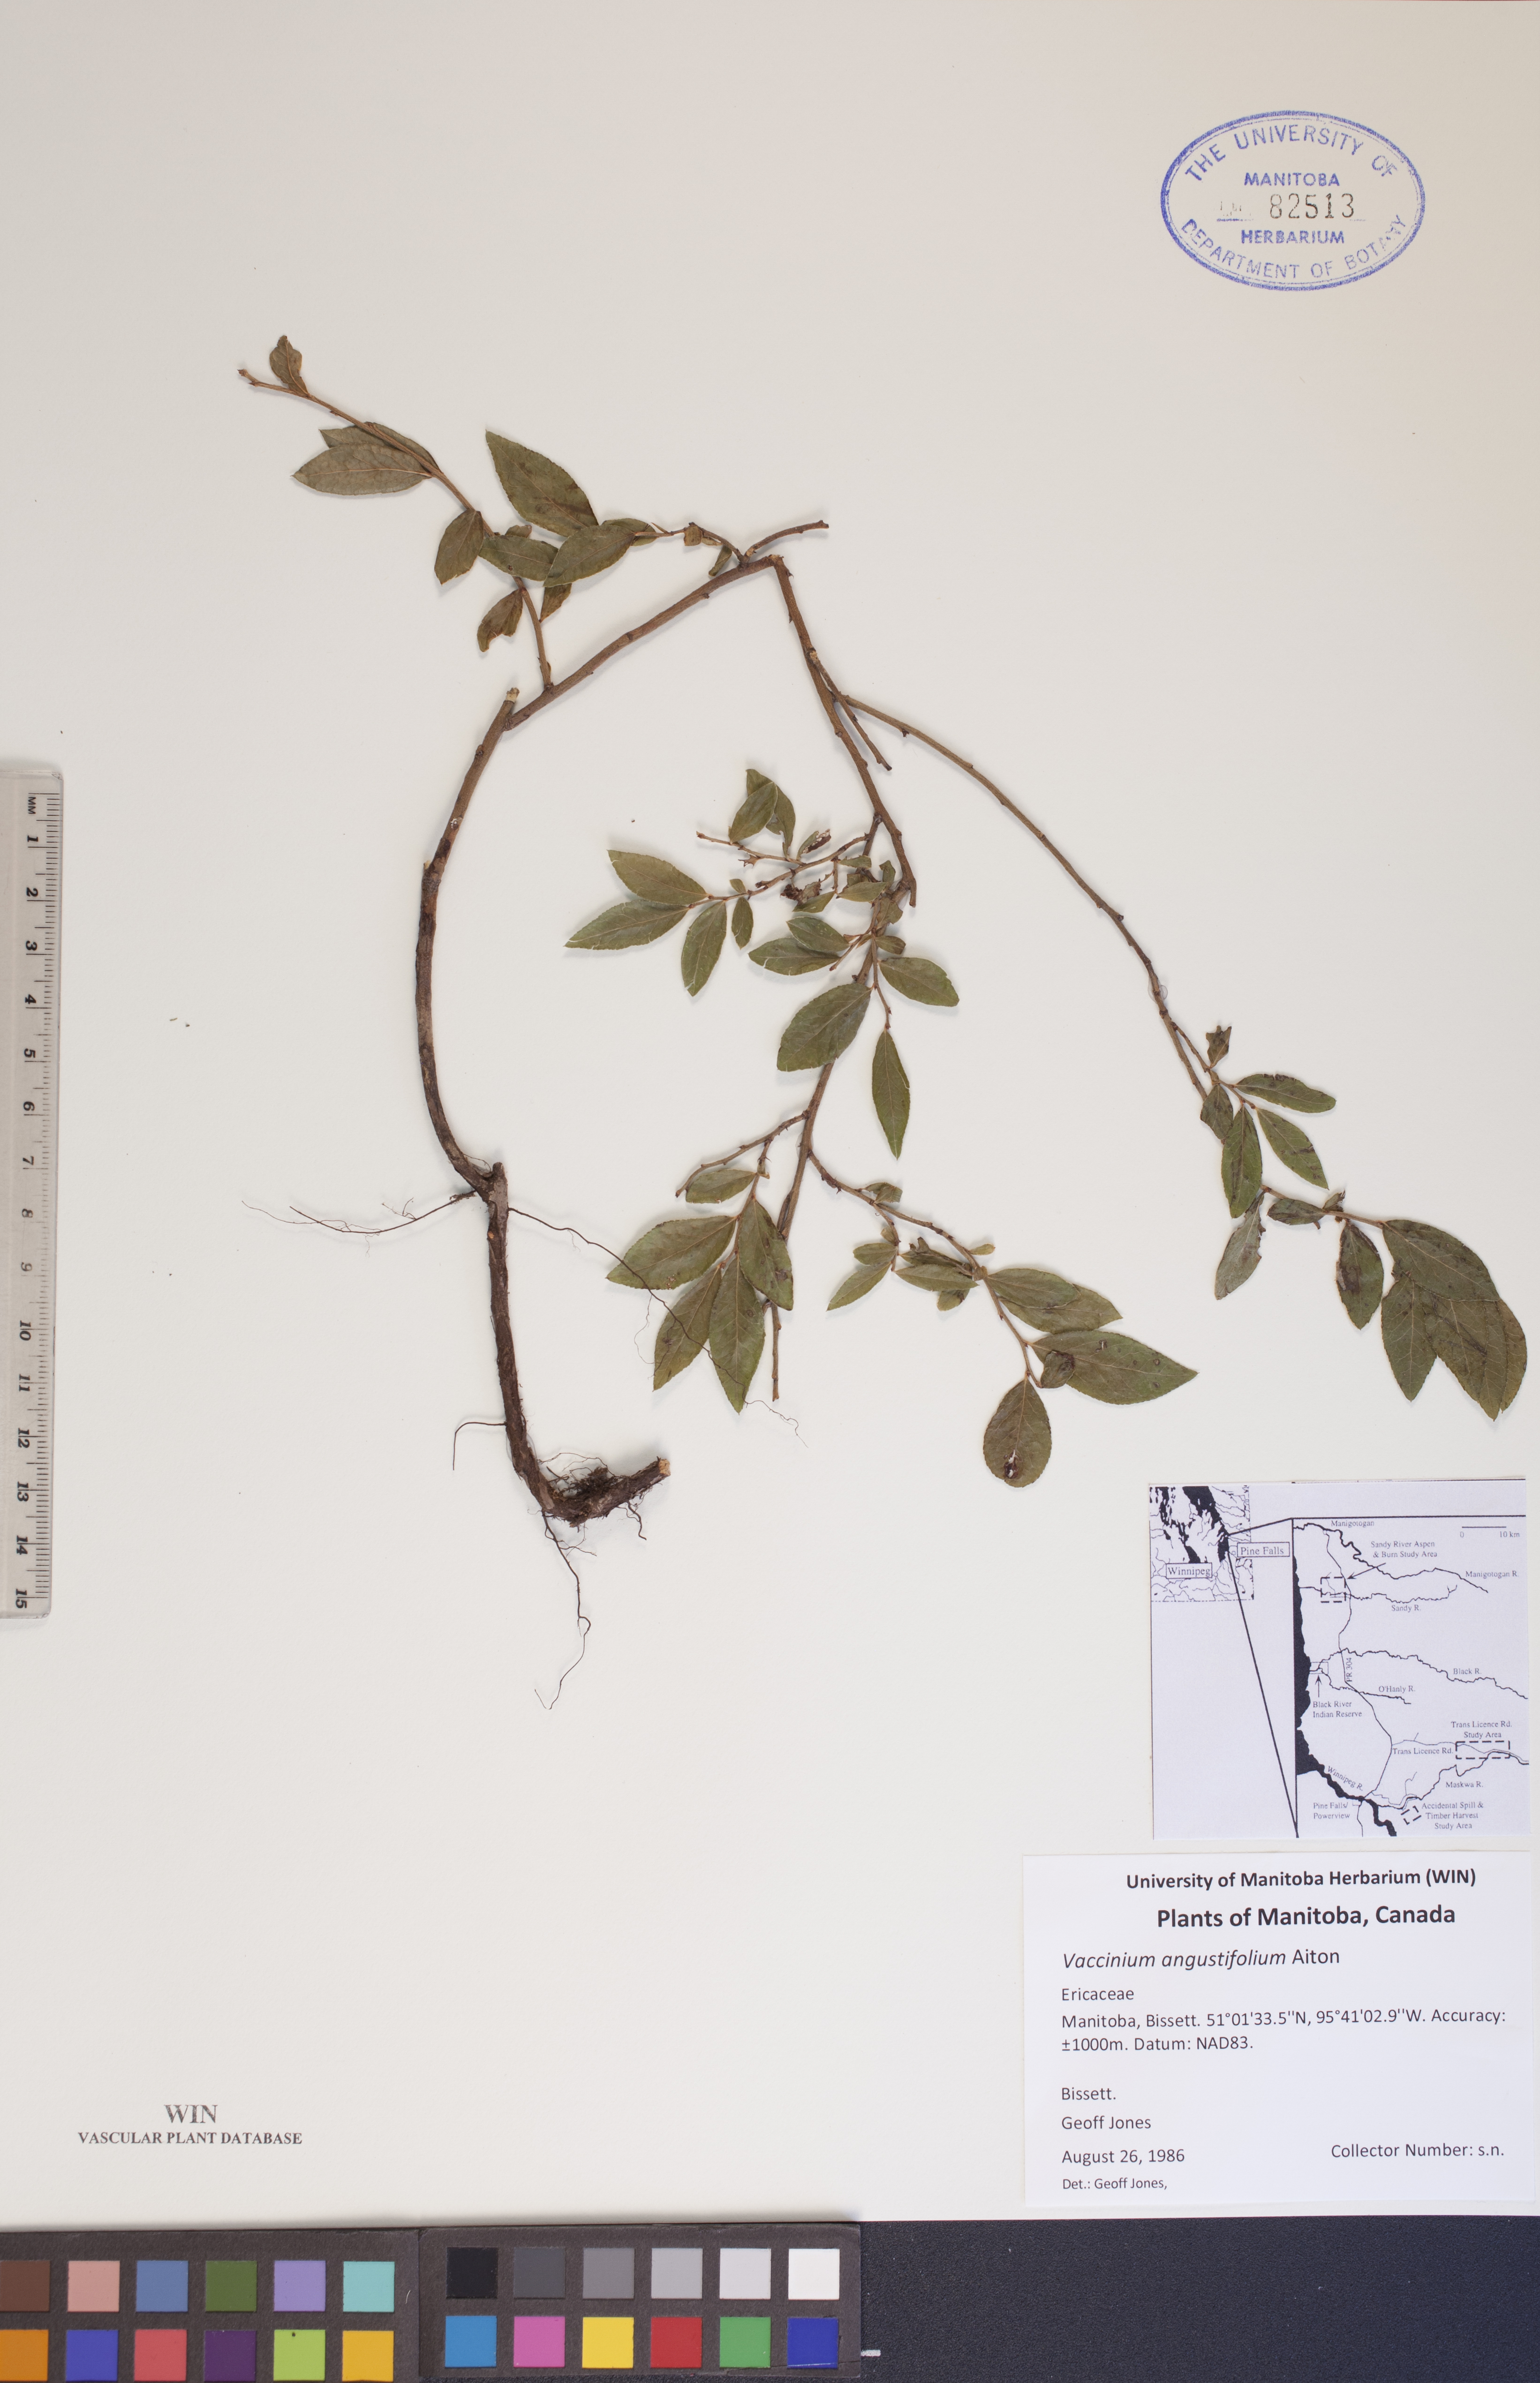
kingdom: Plantae
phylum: Tracheophyta
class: Magnoliopsida
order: Ericales
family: Ericaceae
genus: Vaccinium
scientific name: Vaccinium angustifolium
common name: Early lowbush blueberry
